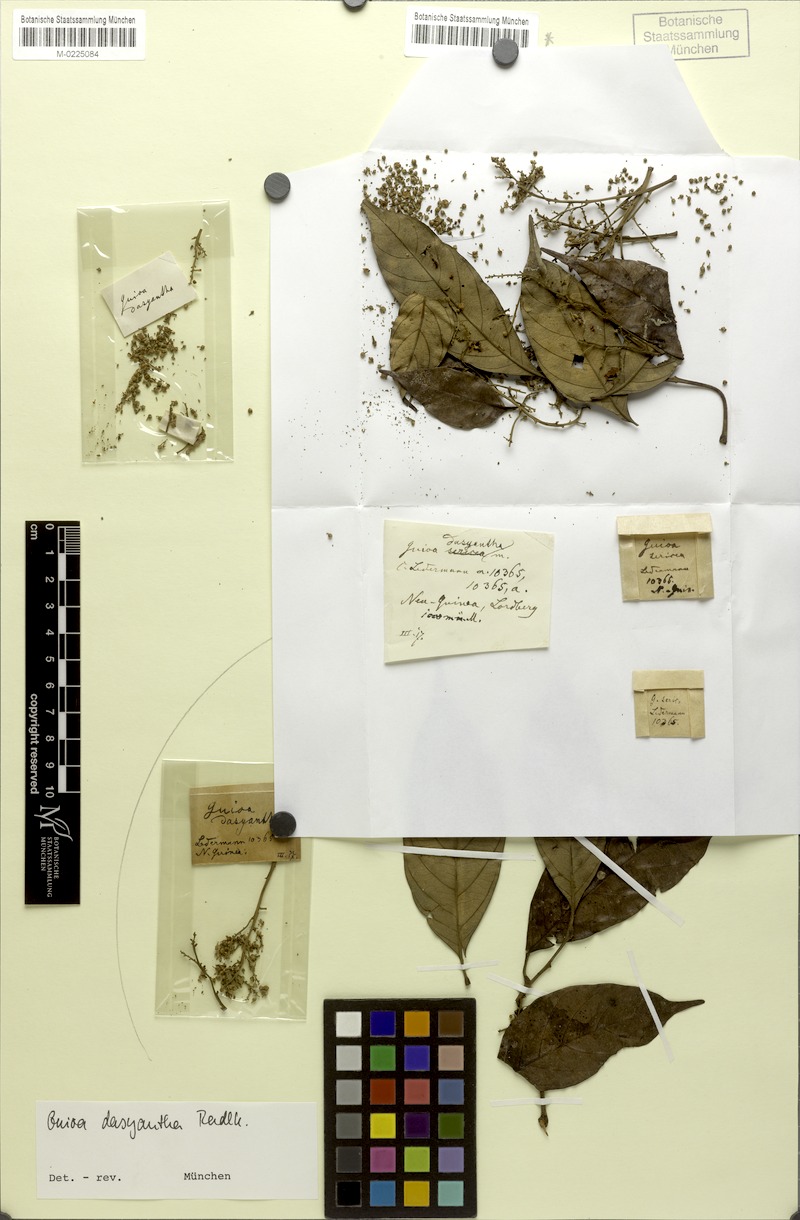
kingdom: Plantae
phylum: Tracheophyta
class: Magnoliopsida
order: Sapindales
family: Sapindaceae
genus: Jagera
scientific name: Jagera
